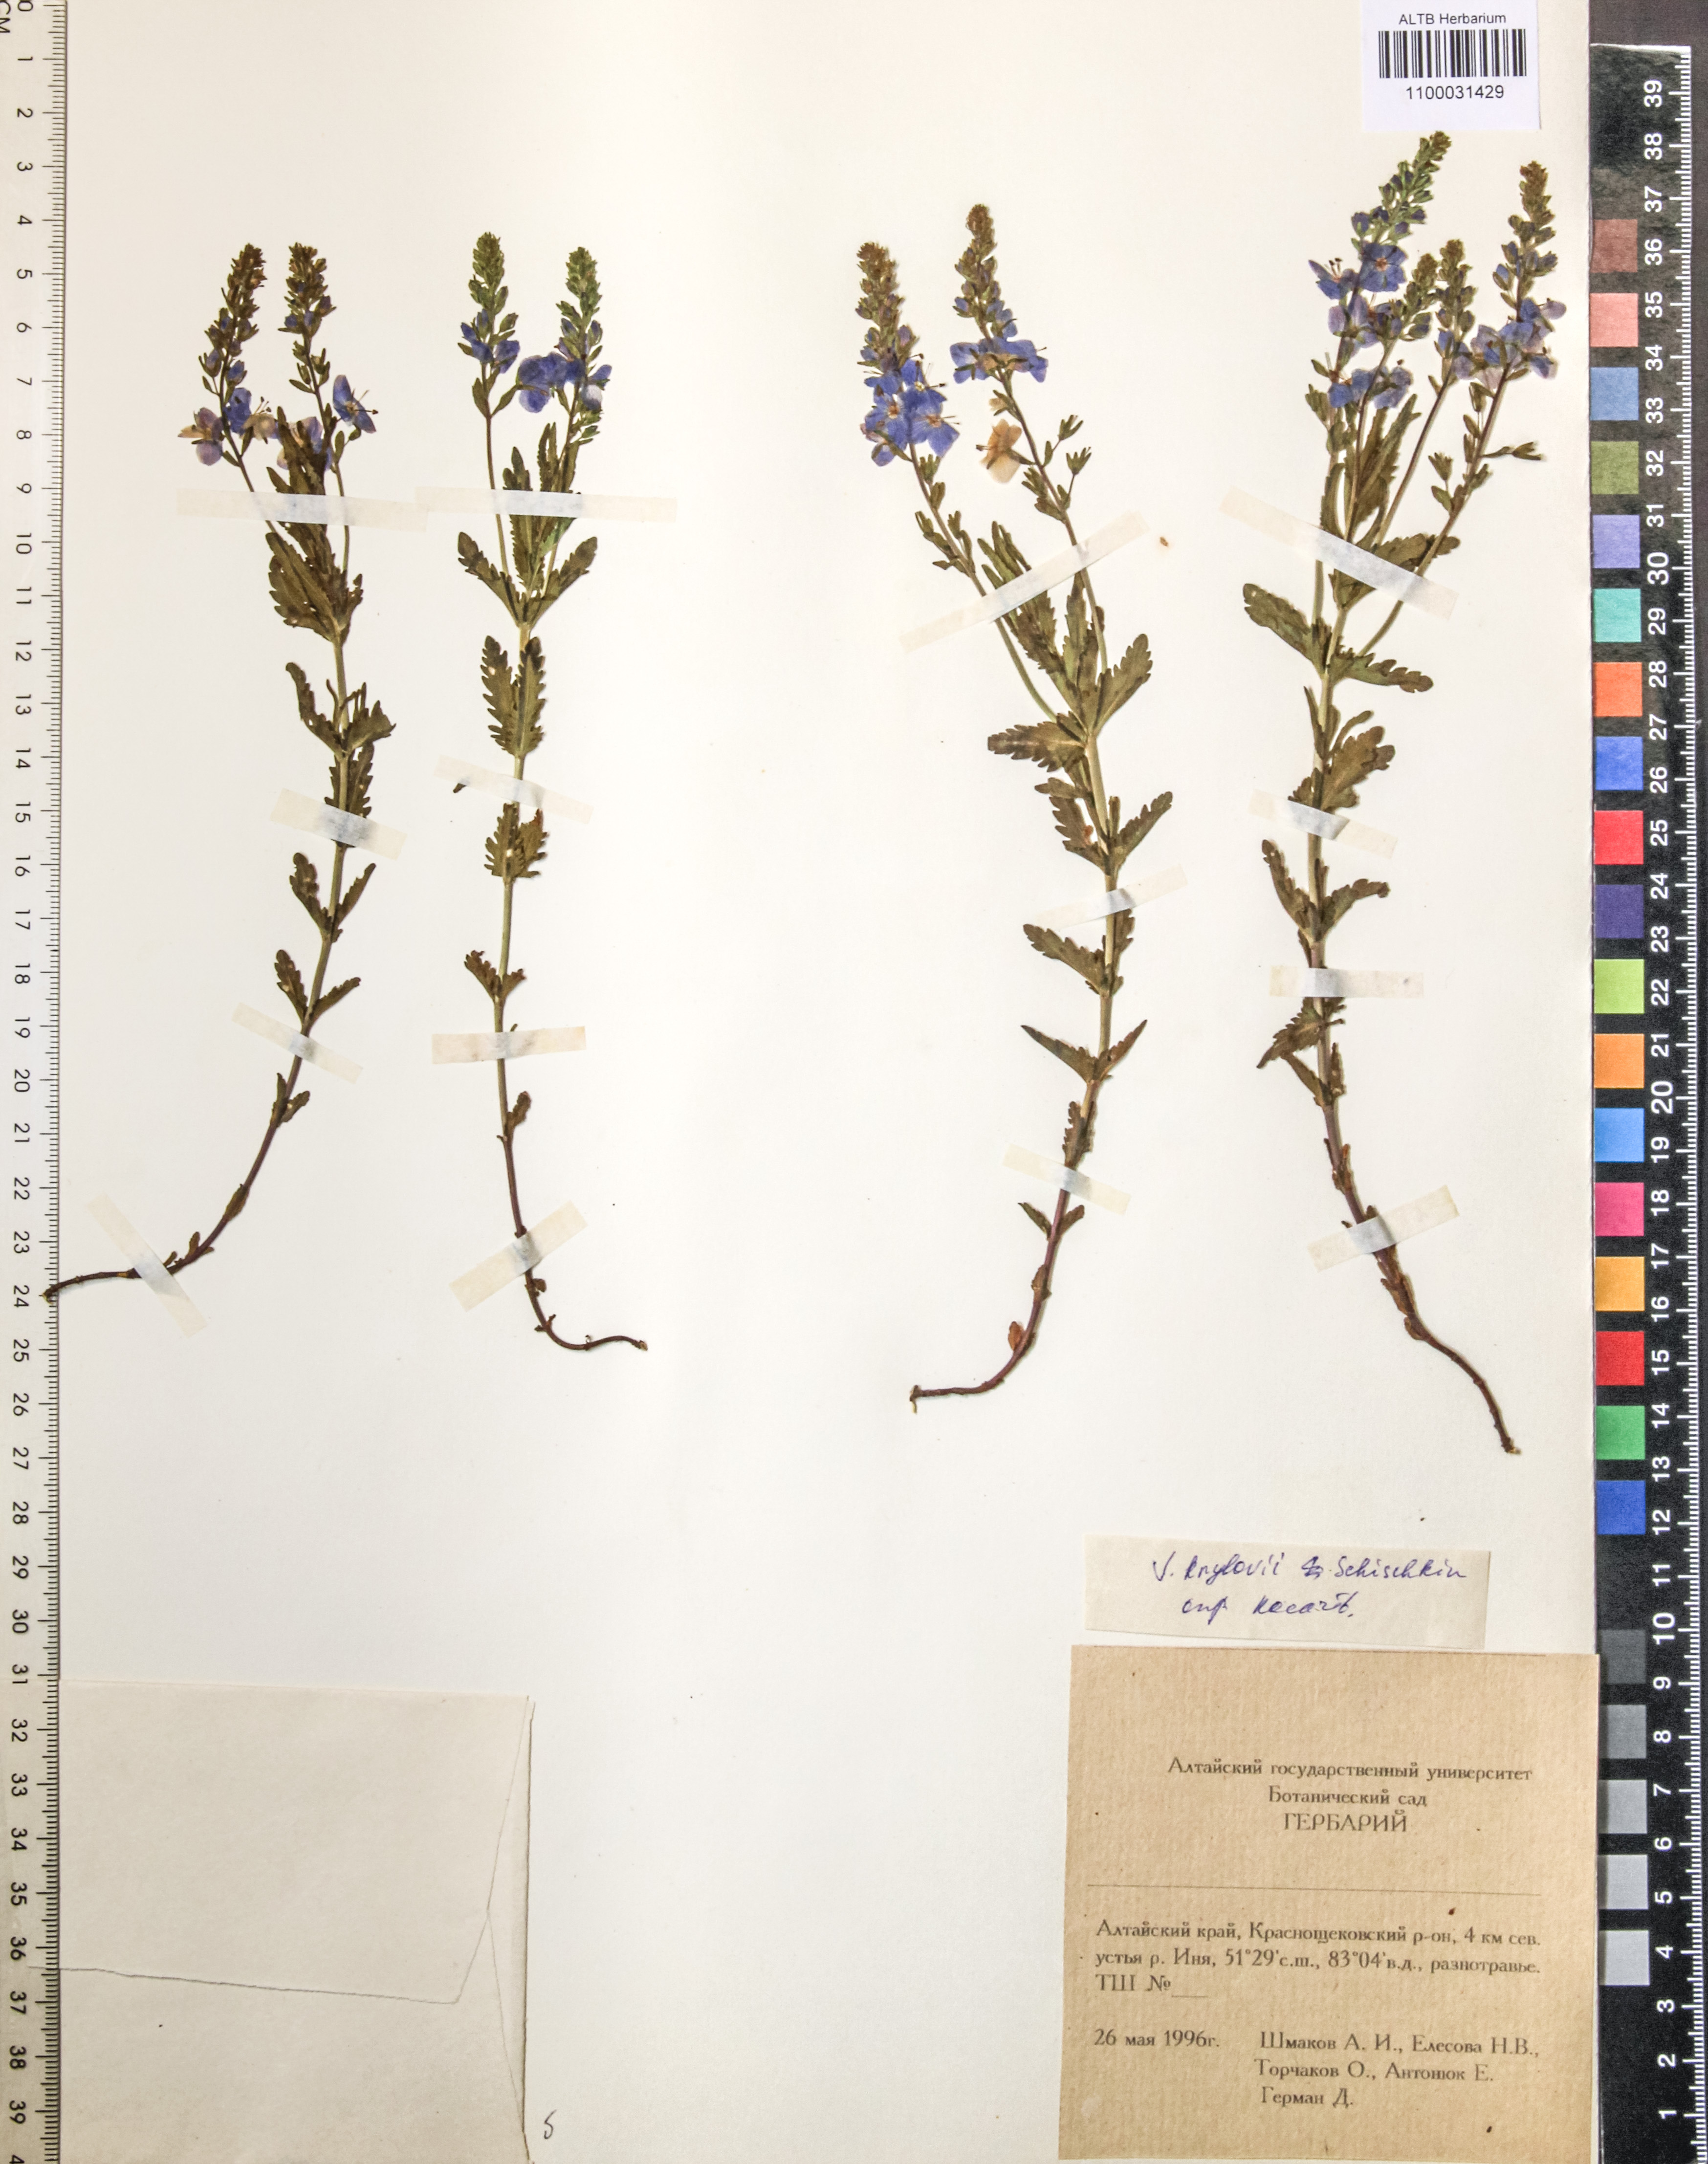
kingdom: Plantae
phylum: Tracheophyta
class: Magnoliopsida
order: Lamiales
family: Plantaginaceae
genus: Veronica
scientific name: Veronica krylovii
